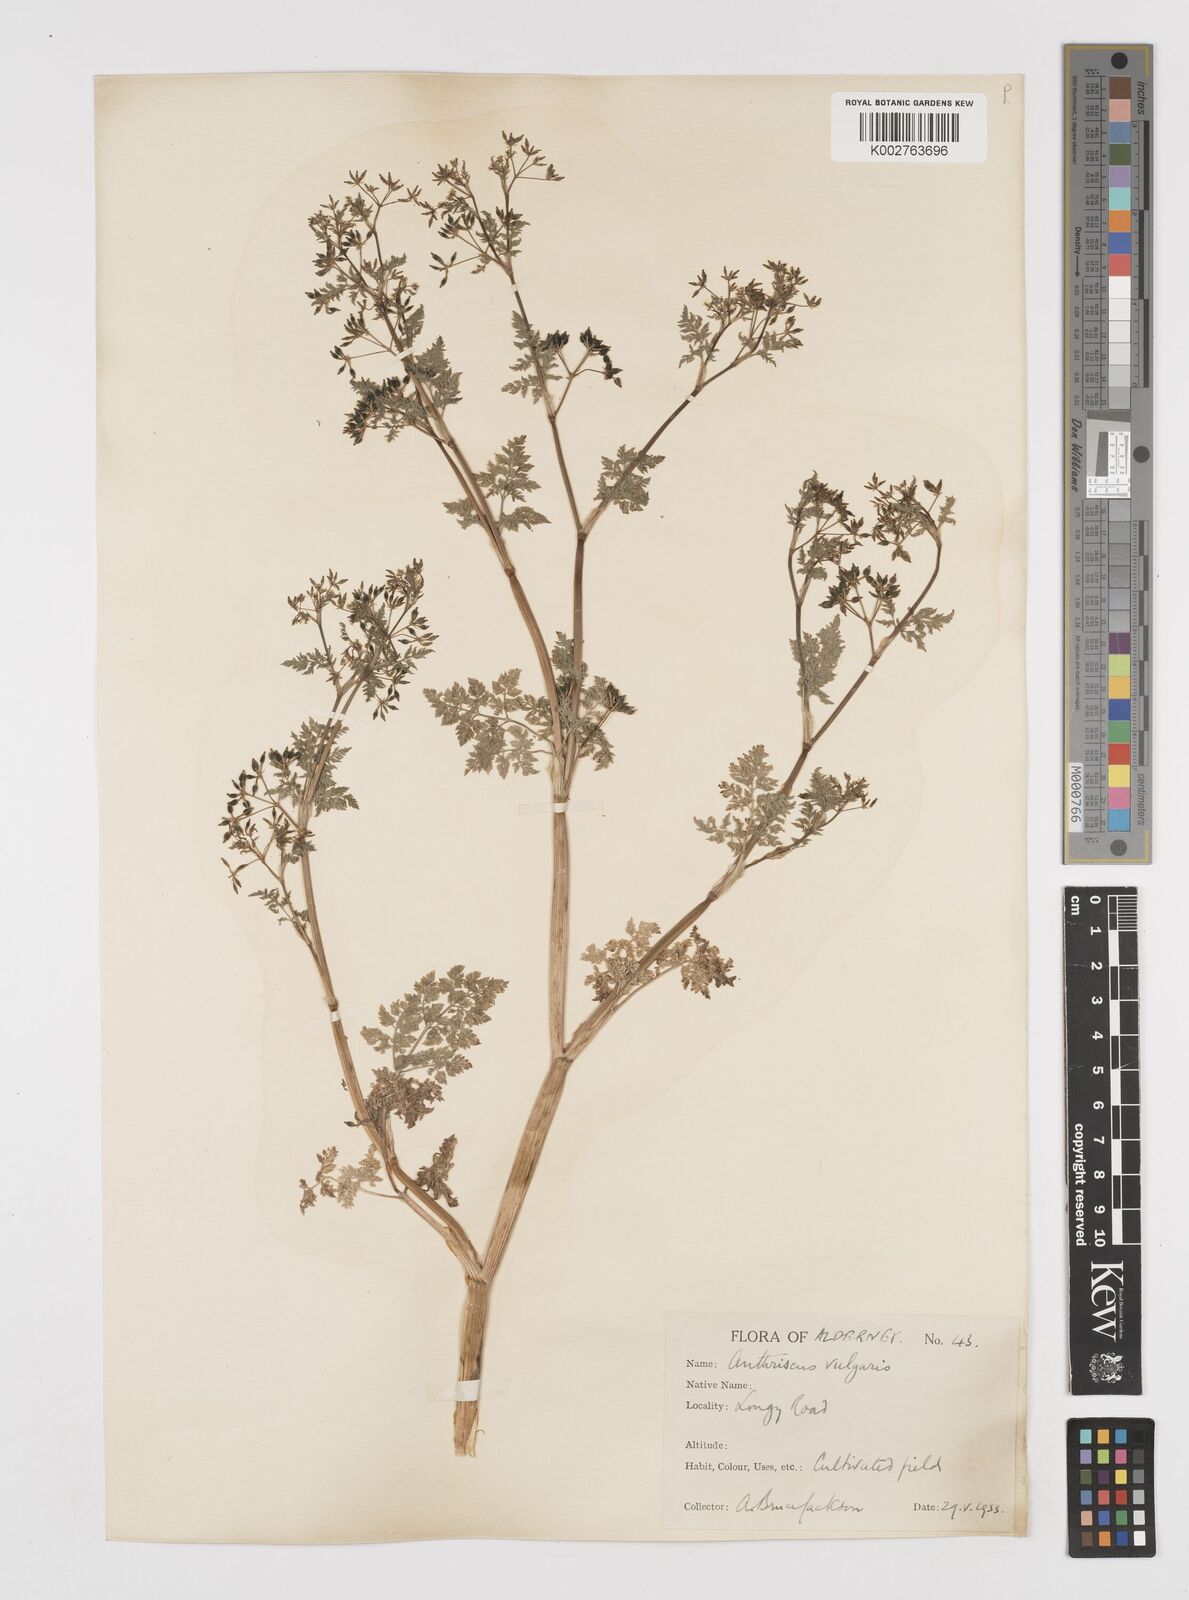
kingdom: Plantae
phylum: Tracheophyta
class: Magnoliopsida
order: Apiales
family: Apiaceae
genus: Anthriscus
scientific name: Anthriscus caucalis
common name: Bur chervil
